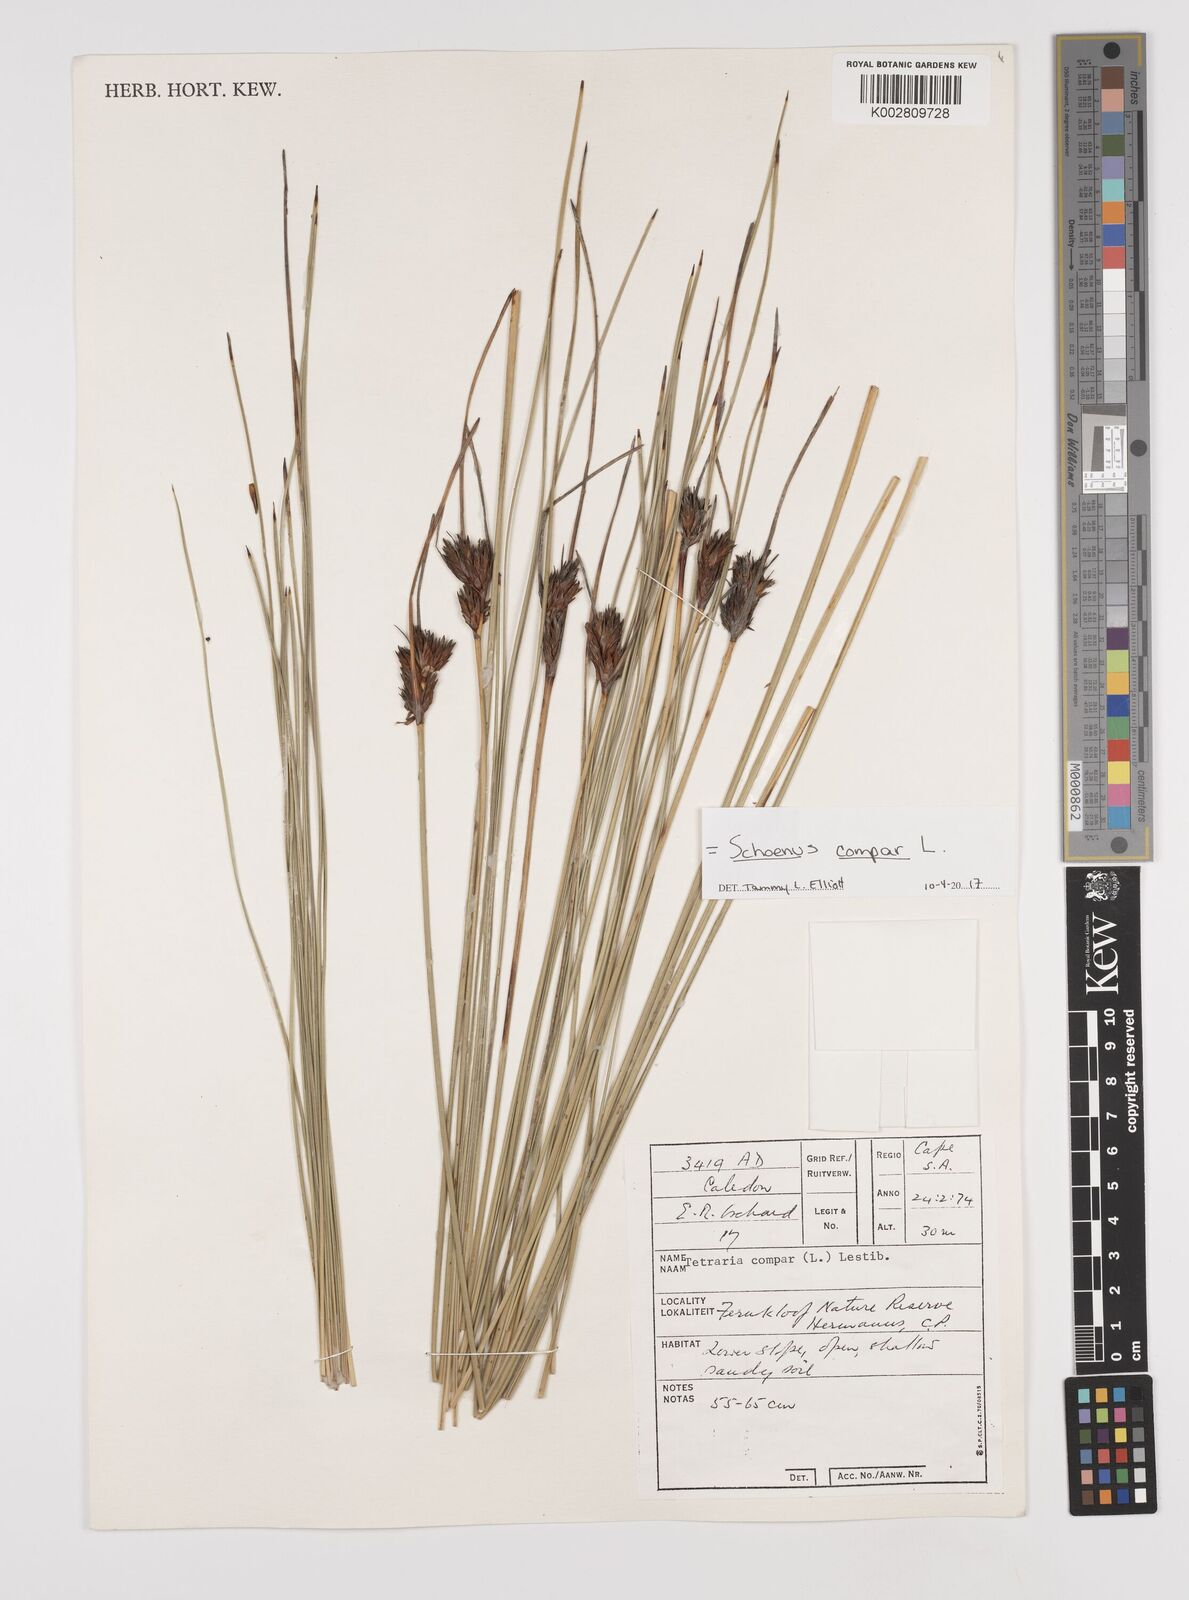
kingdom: Plantae
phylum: Tracheophyta
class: Liliopsida
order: Poales
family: Cyperaceae
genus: Schoenus
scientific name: Schoenus compar
